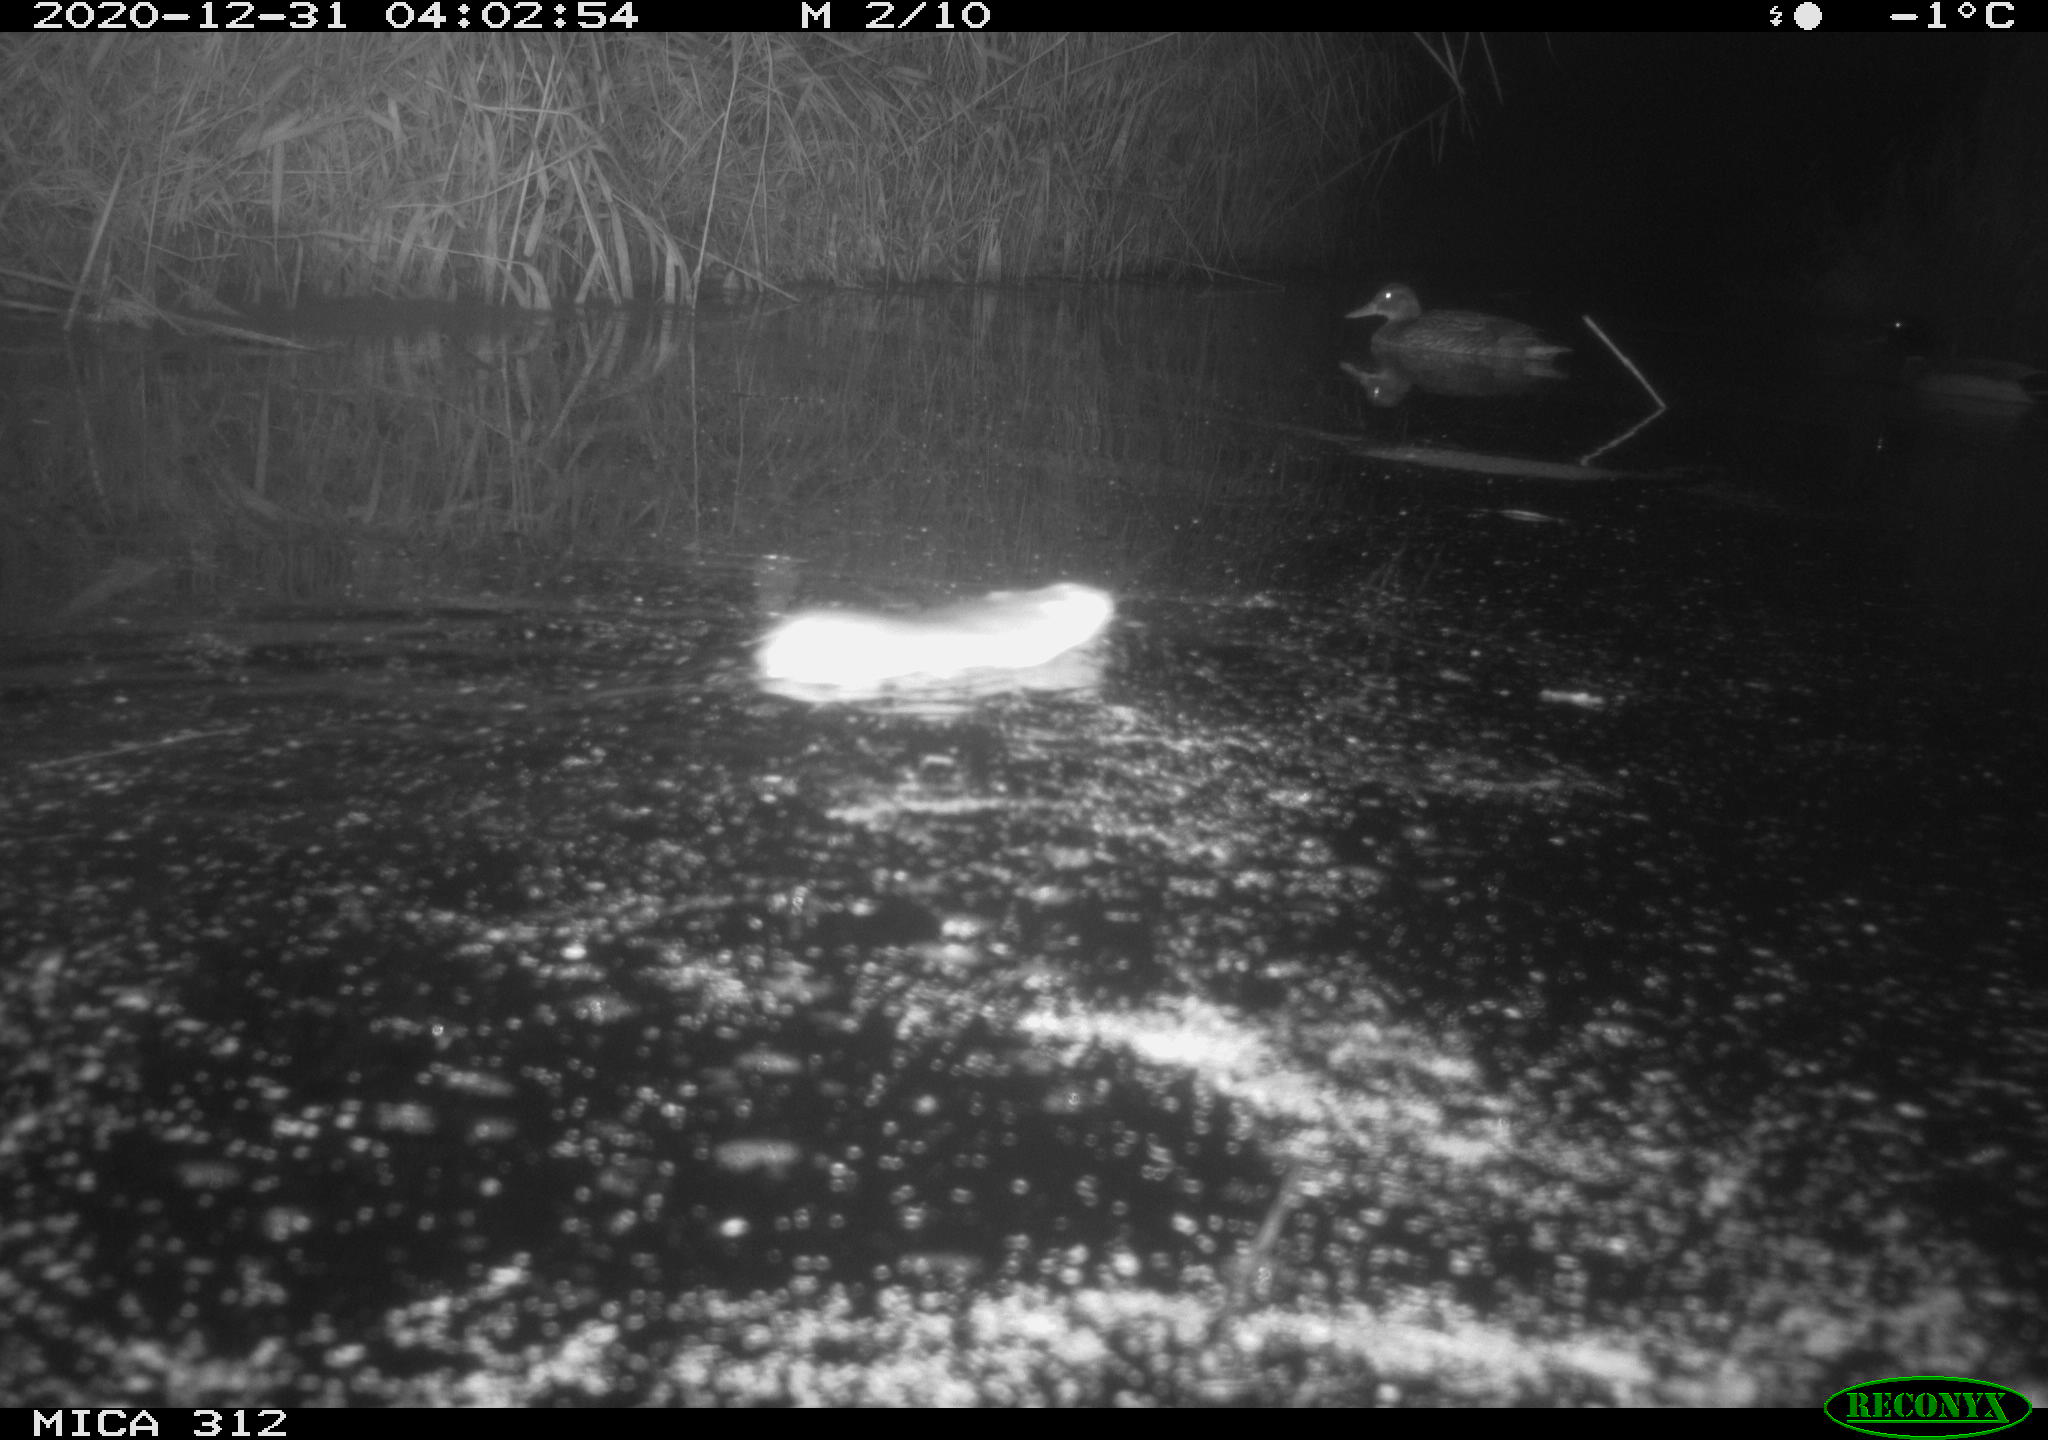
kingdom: Animalia
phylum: Chordata
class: Aves
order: Anseriformes
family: Anatidae
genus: Anas
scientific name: Anas platyrhynchos
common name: Mallard
